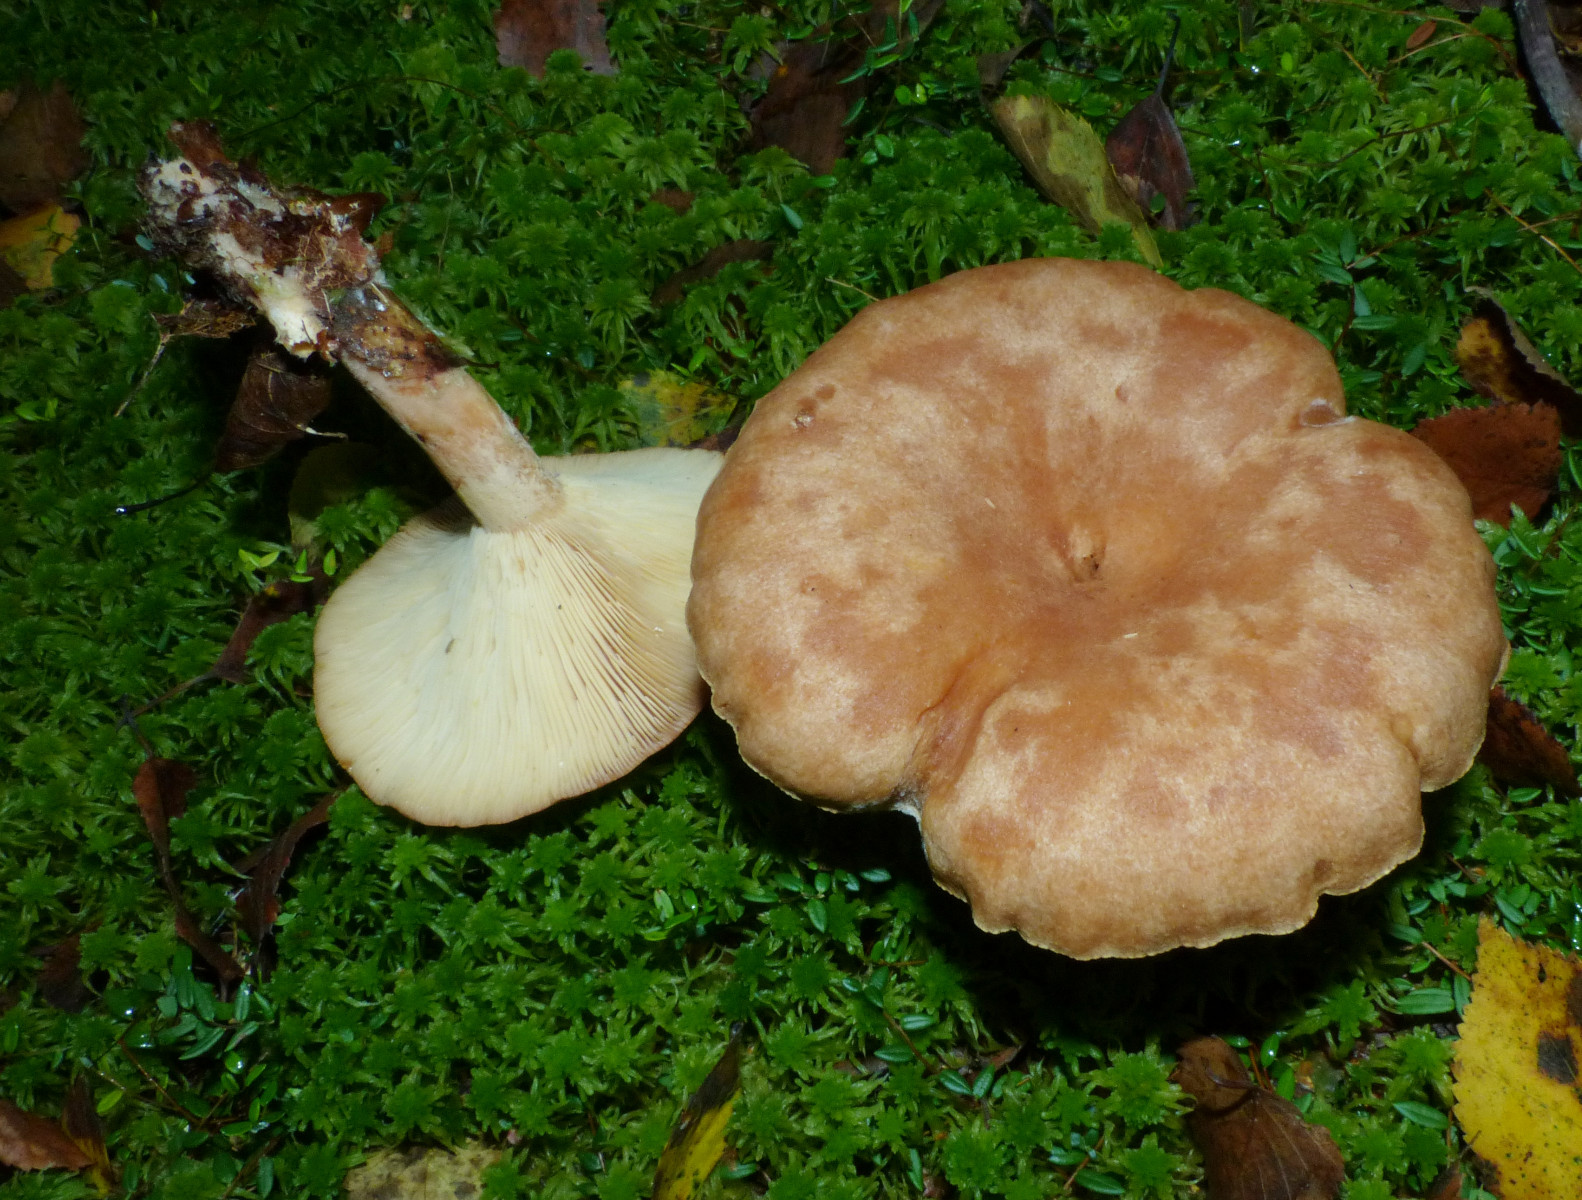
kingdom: Fungi
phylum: Basidiomycota
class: Agaricomycetes
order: Russulales
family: Russulaceae
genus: Lactarius
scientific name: Lactarius helvus
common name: mose-mælkehat
